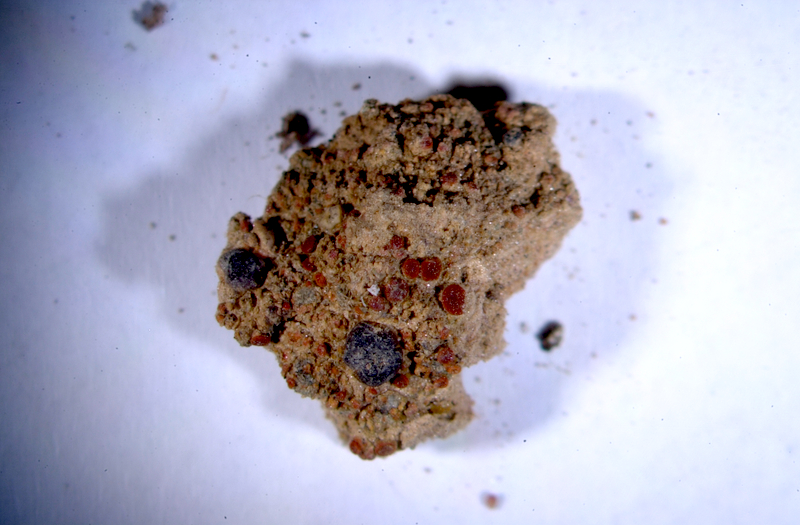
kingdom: Fungi
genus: Lichenicolous
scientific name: Lichenicolous fungus
